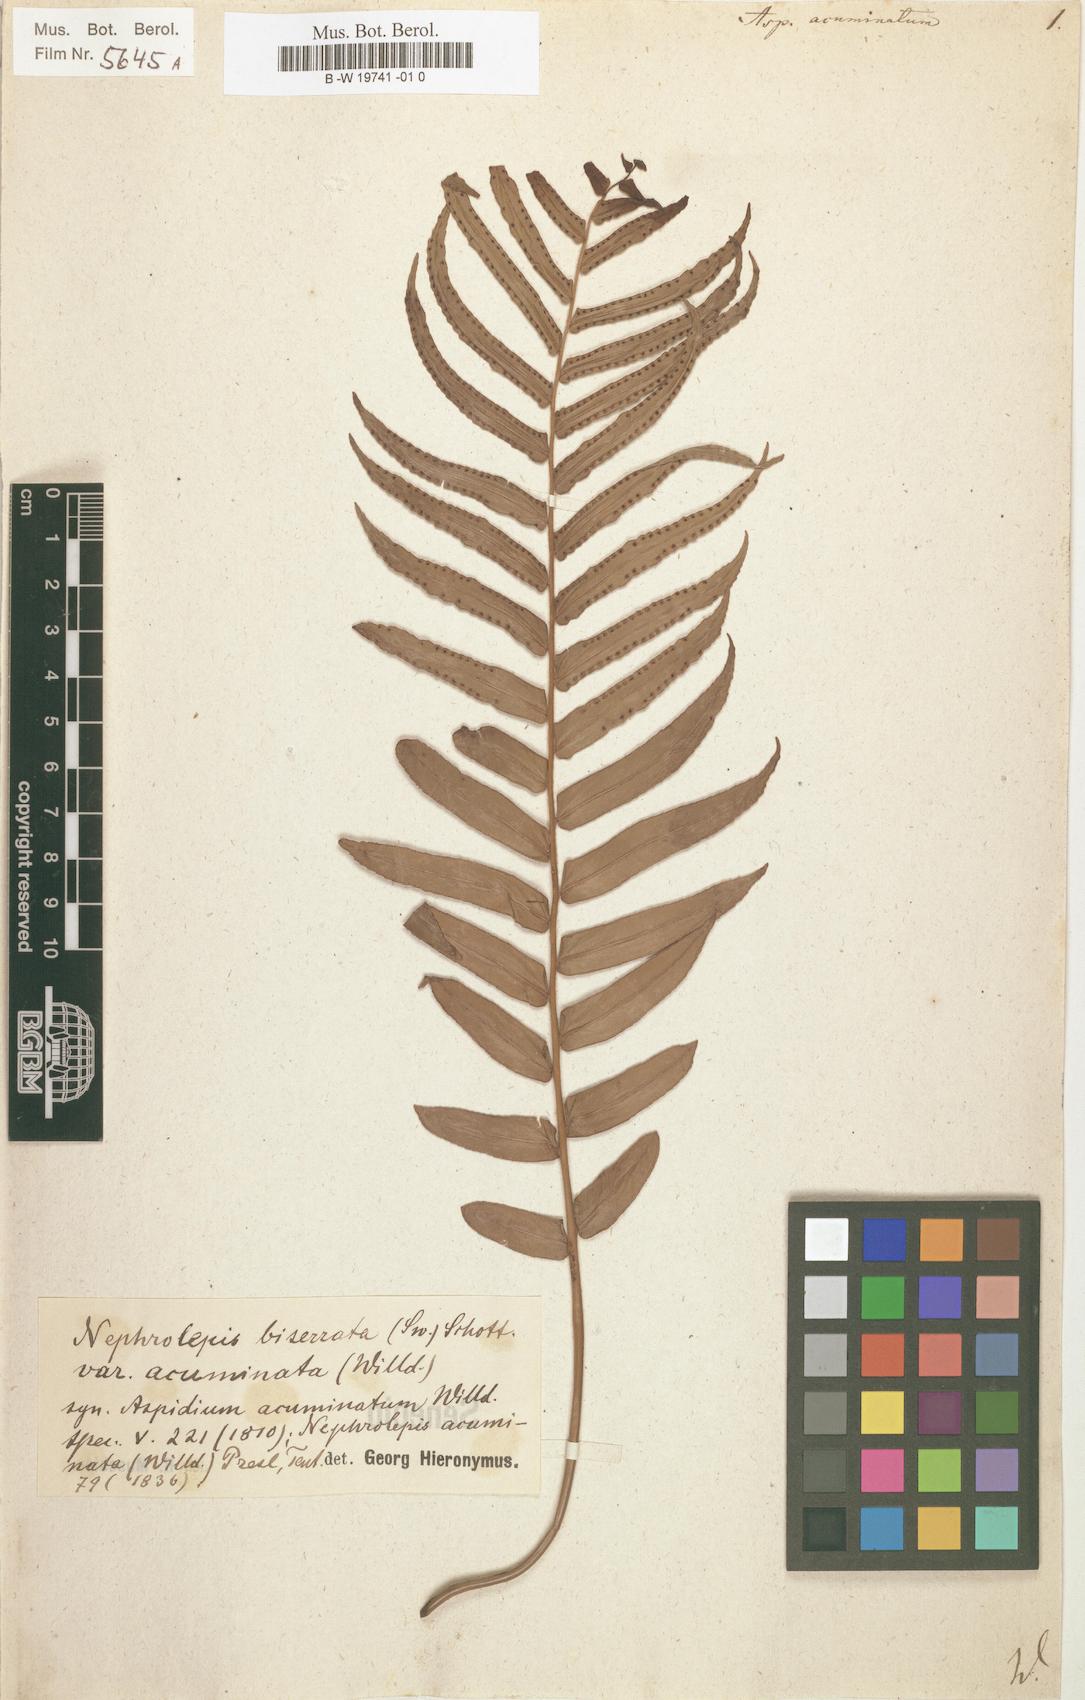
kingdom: Plantae
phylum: Tracheophyta
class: Polypodiopsida
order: Polypodiales
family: Nephrolepidaceae
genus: Nephrolepis
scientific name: Nephrolepis biserrata
